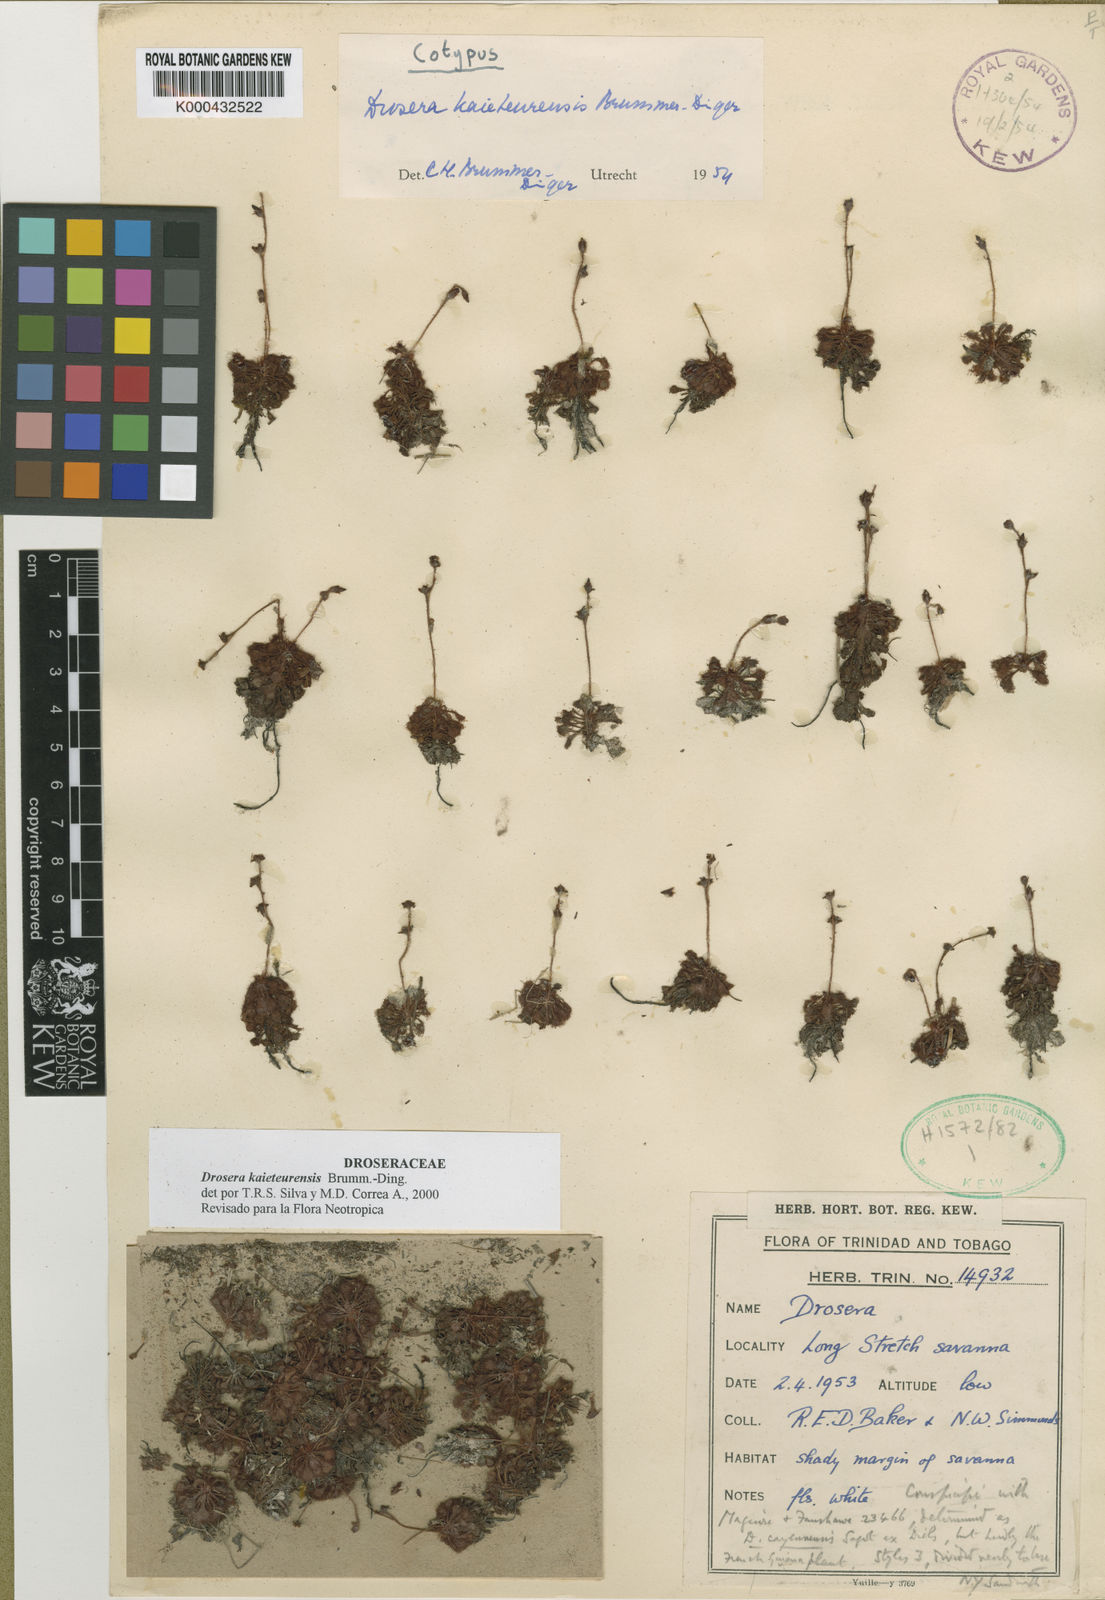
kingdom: Plantae
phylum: Tracheophyta
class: Magnoliopsida
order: Caryophyllales
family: Droseraceae
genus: Drosera
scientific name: Drosera kaieteurensis
